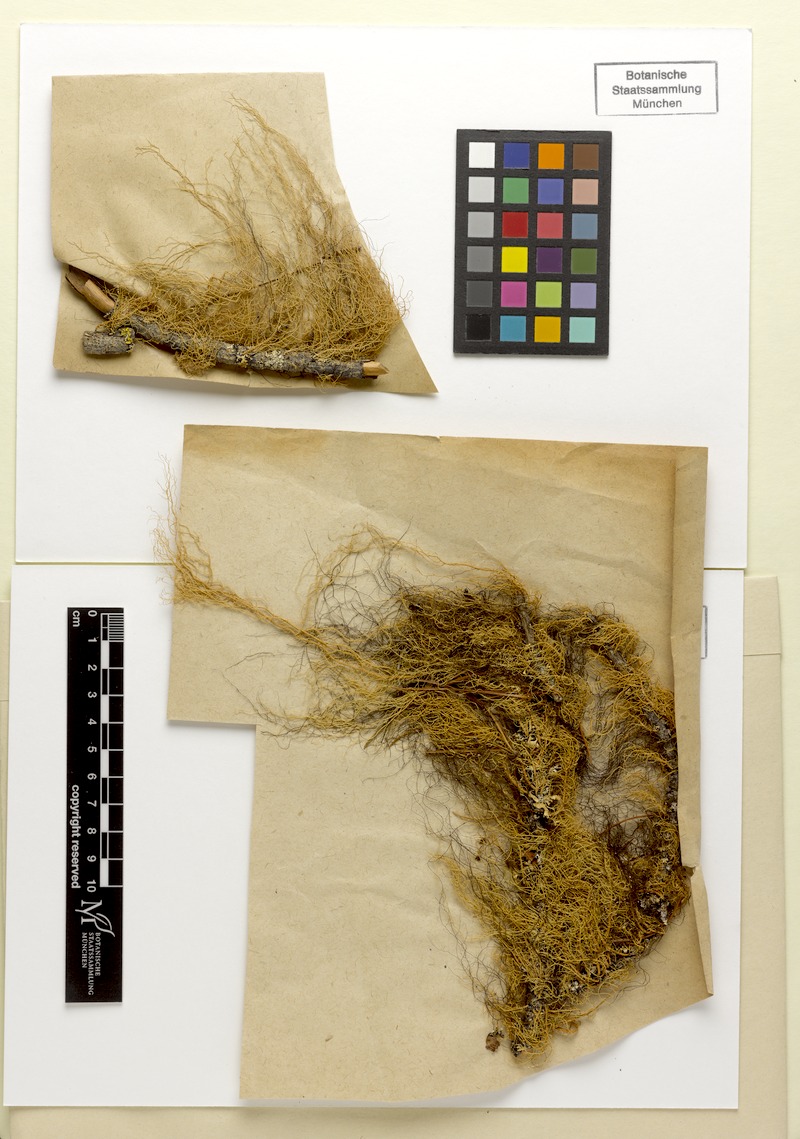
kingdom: Fungi
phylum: Ascomycota
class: Lecanoromycetes
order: Lecanorales
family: Parmeliaceae
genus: Usnea
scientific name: Usnea dasopoga
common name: Fishbone beard lichen
